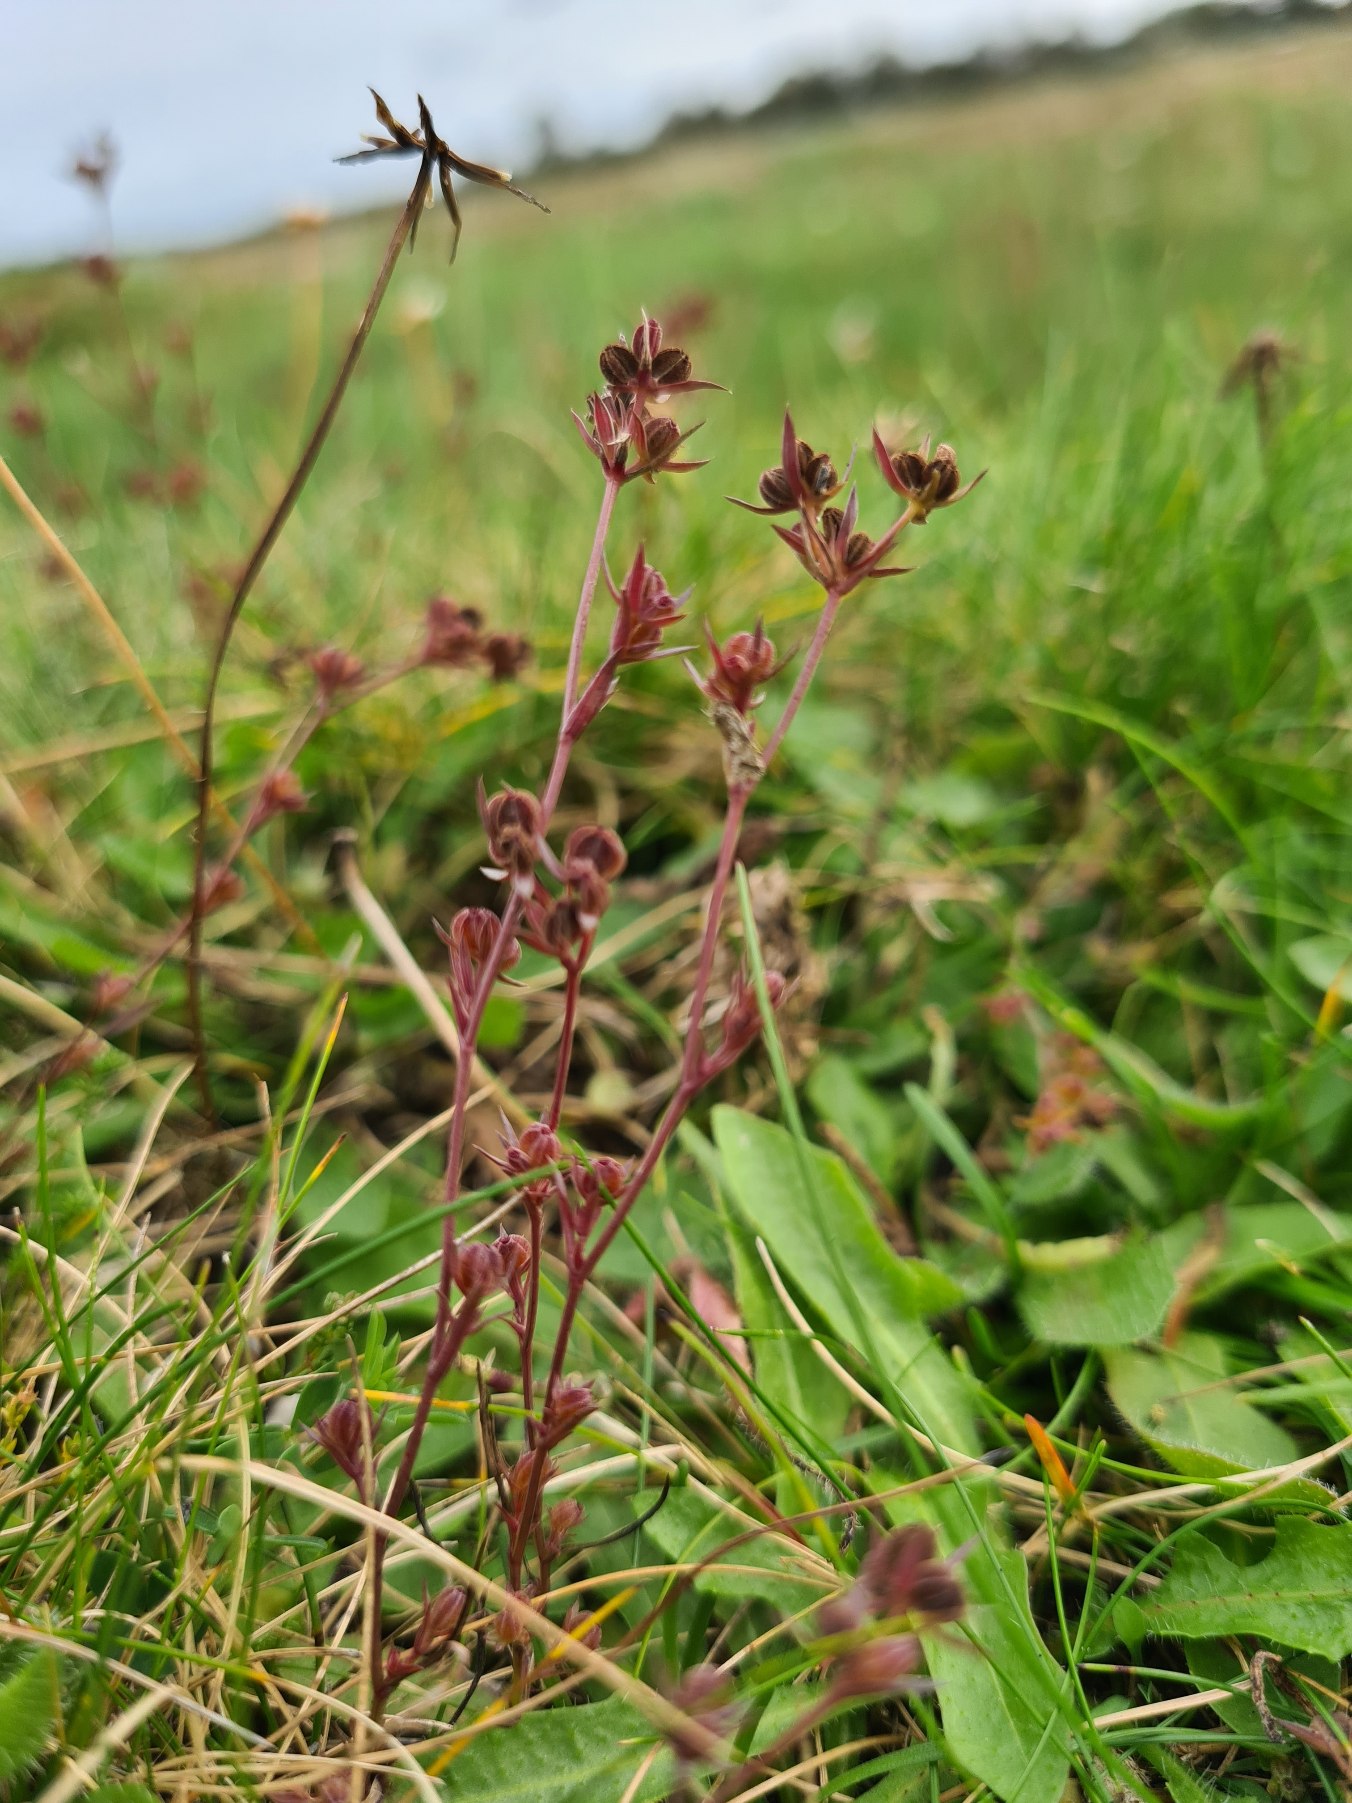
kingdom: Plantae
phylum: Tracheophyta
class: Magnoliopsida
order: Apiales
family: Apiaceae
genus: Bupleurum
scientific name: Bupleurum tenuissimum
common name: Smalbladet hareøre
